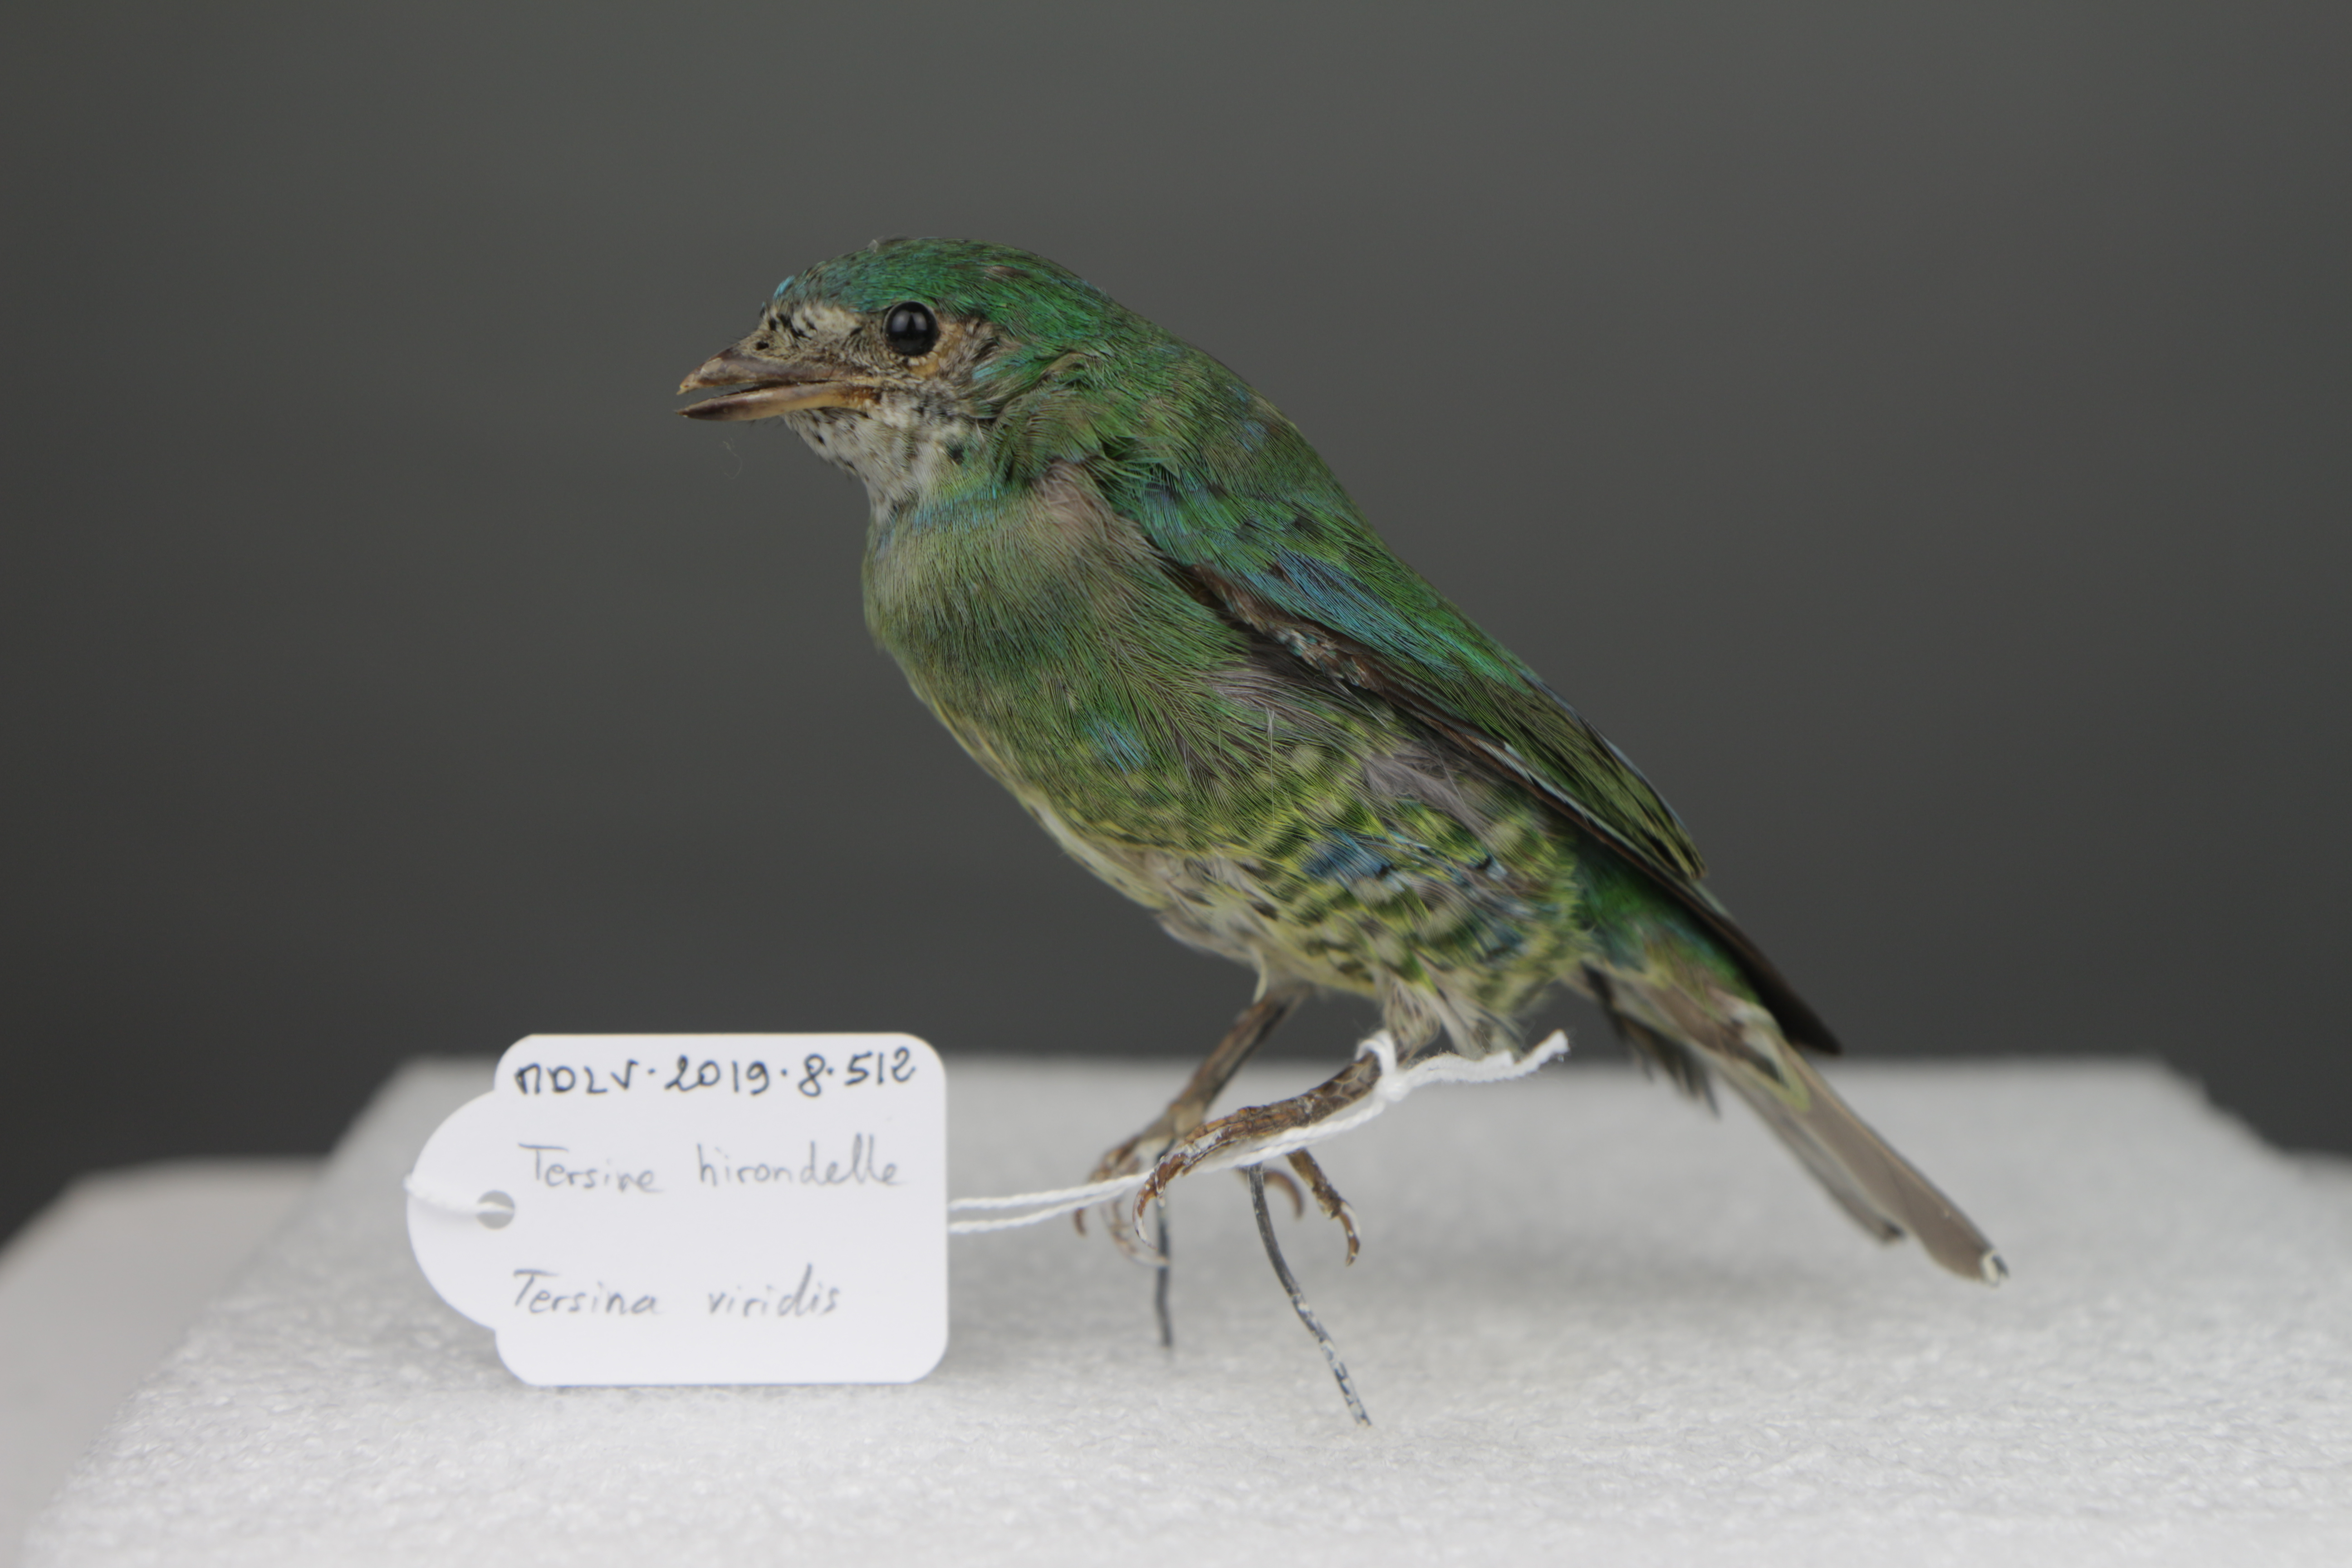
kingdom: Animalia
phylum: Chordata
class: Aves
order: Passeriformes
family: Thraupidae
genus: Tersina
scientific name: Tersina viridis
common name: Swallow tanager
